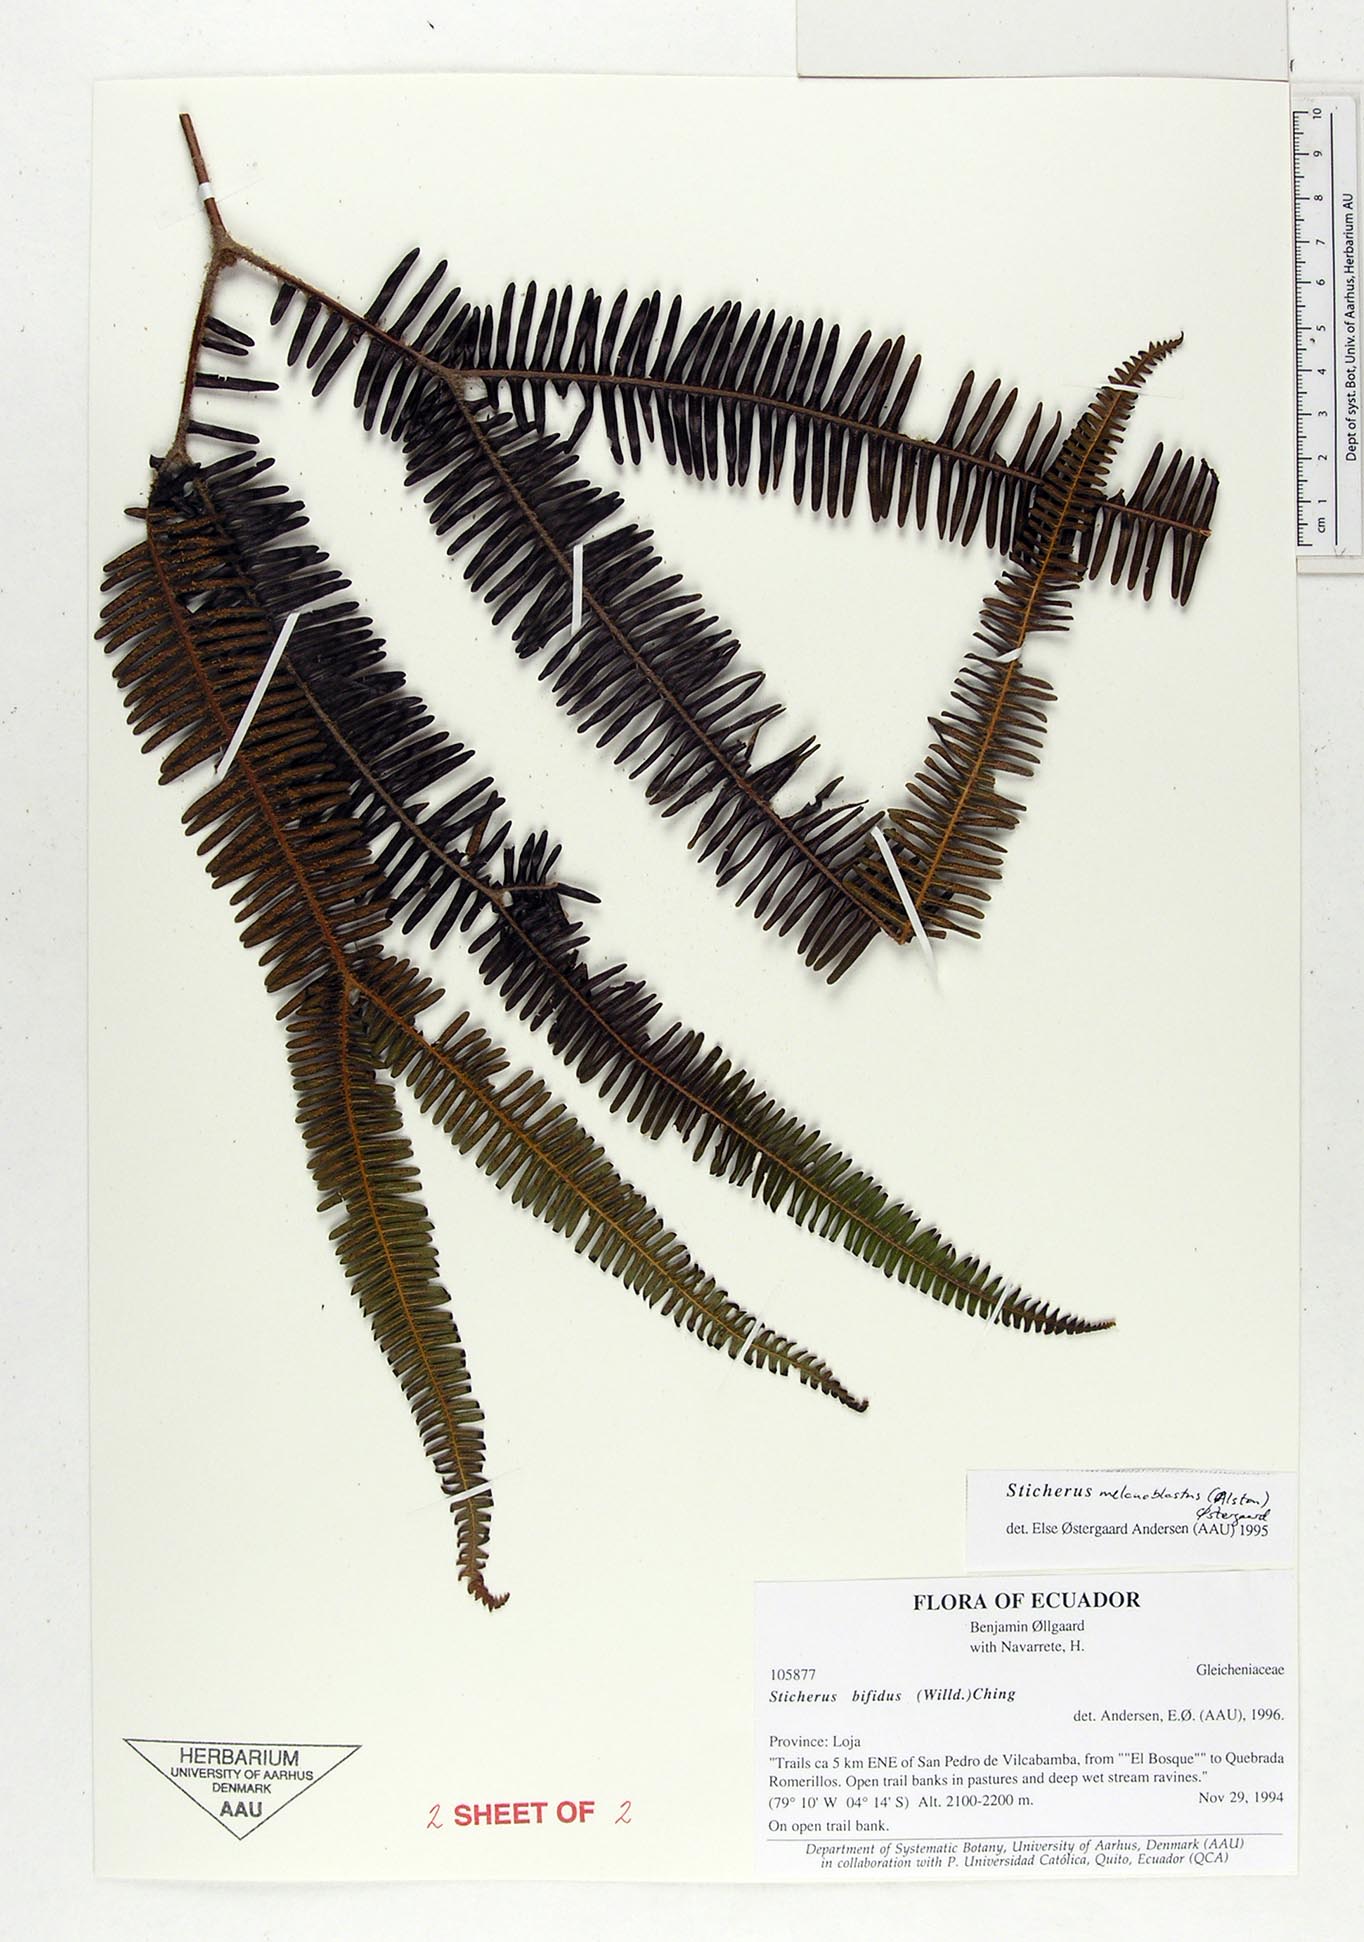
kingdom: Plantae
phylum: Tracheophyta
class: Polypodiopsida
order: Gleicheniales
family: Gleicheniaceae
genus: Sticherus
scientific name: Sticherus bifidus
